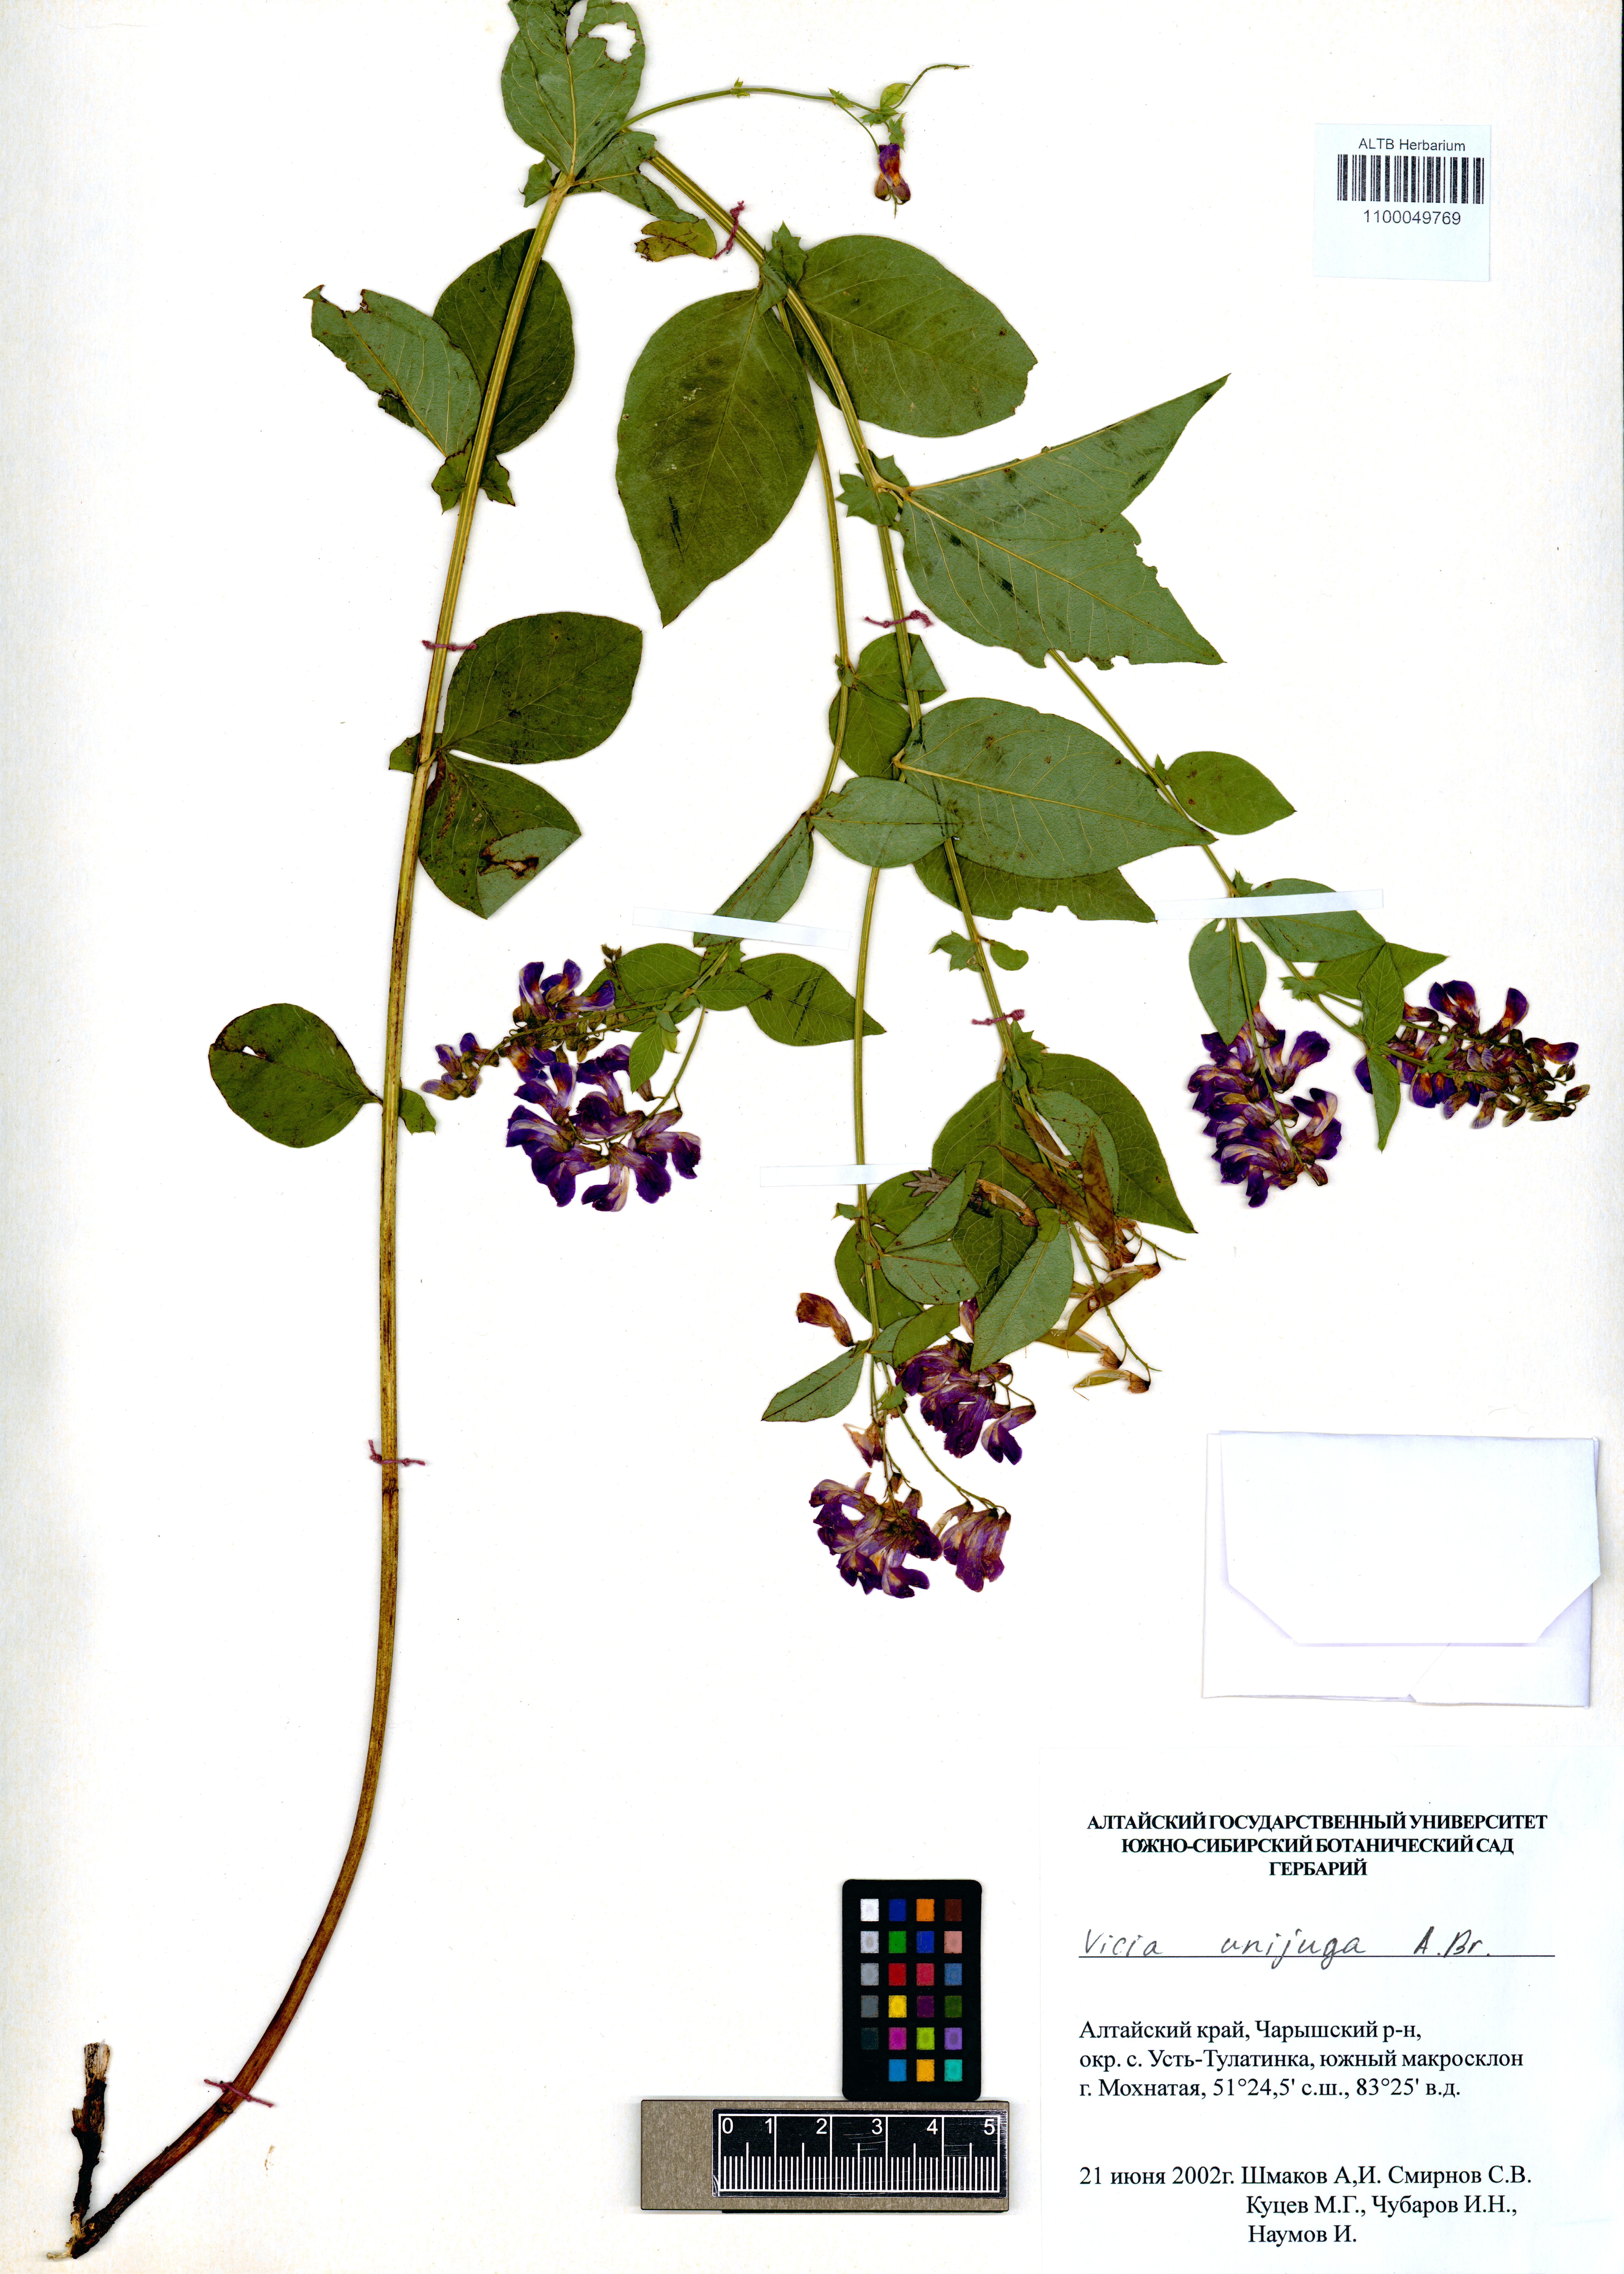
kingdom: Plantae
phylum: Tracheophyta
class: Magnoliopsida
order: Fabales
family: Fabaceae
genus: Vicia
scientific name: Vicia unijuga
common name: Two-leaf vetch
